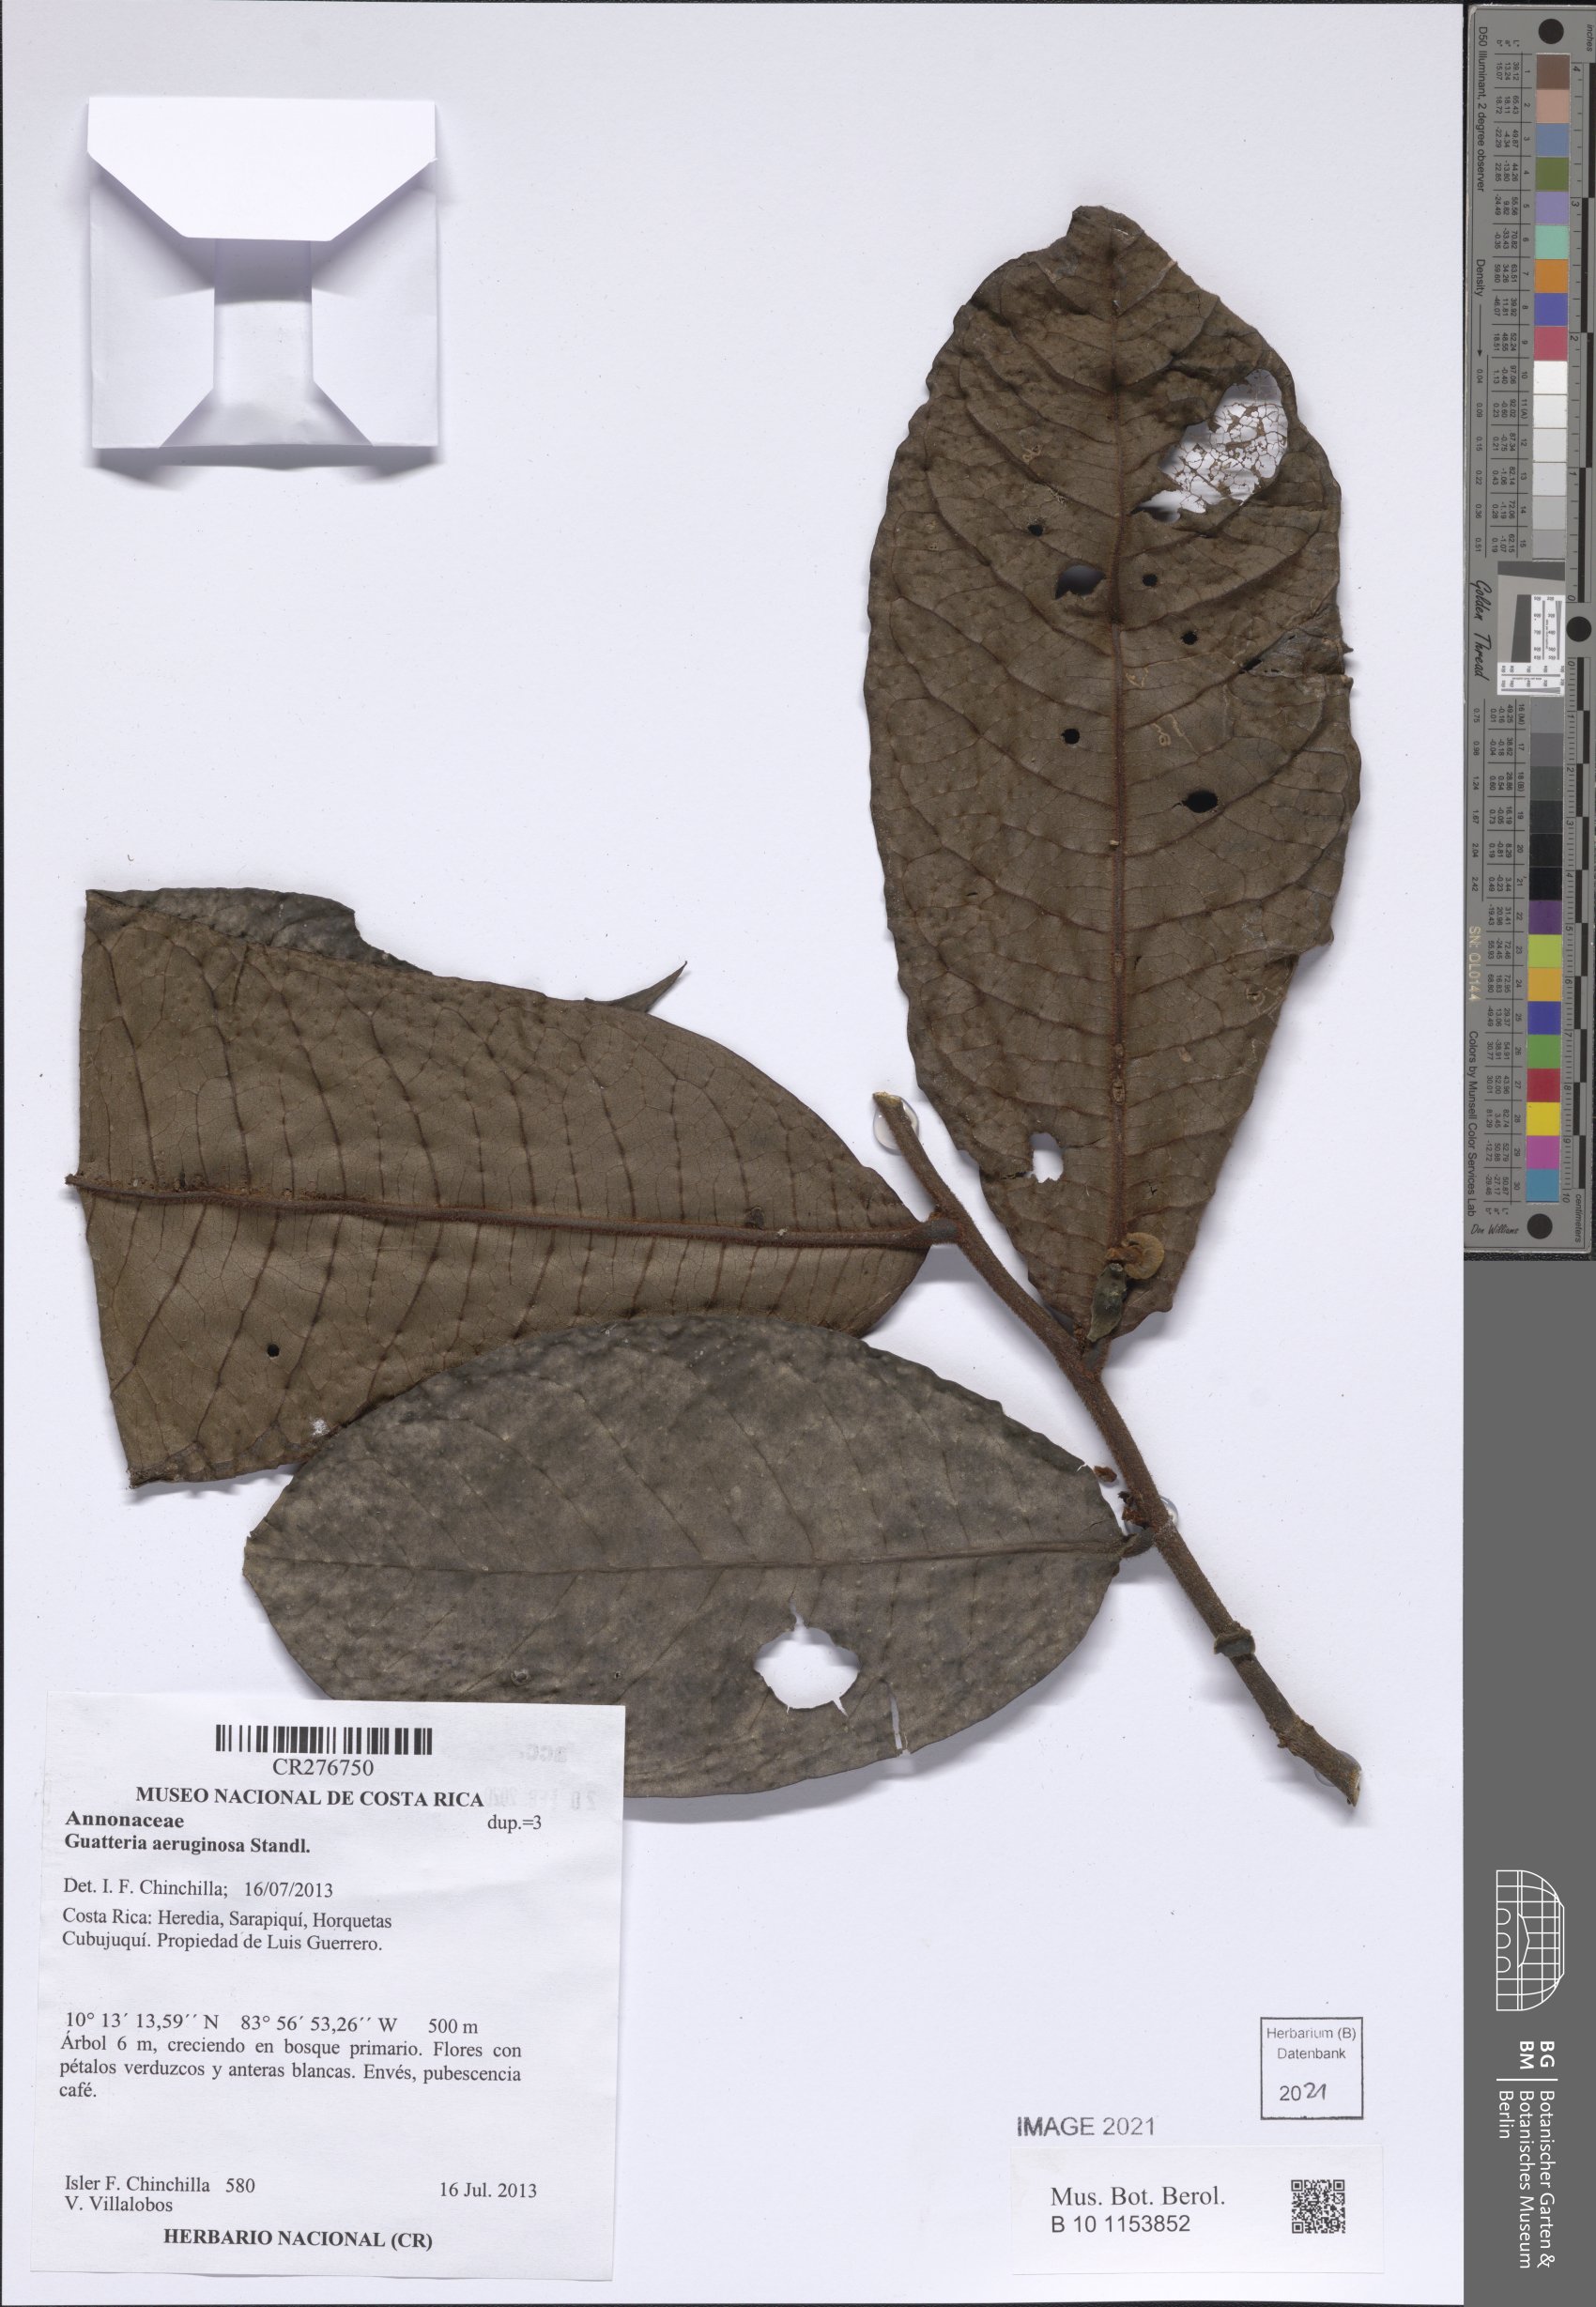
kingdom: Plantae
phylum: Tracheophyta
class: Magnoliopsida
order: Magnoliales
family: Annonaceae
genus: Guatteria
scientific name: Guatteria aeruginosa
